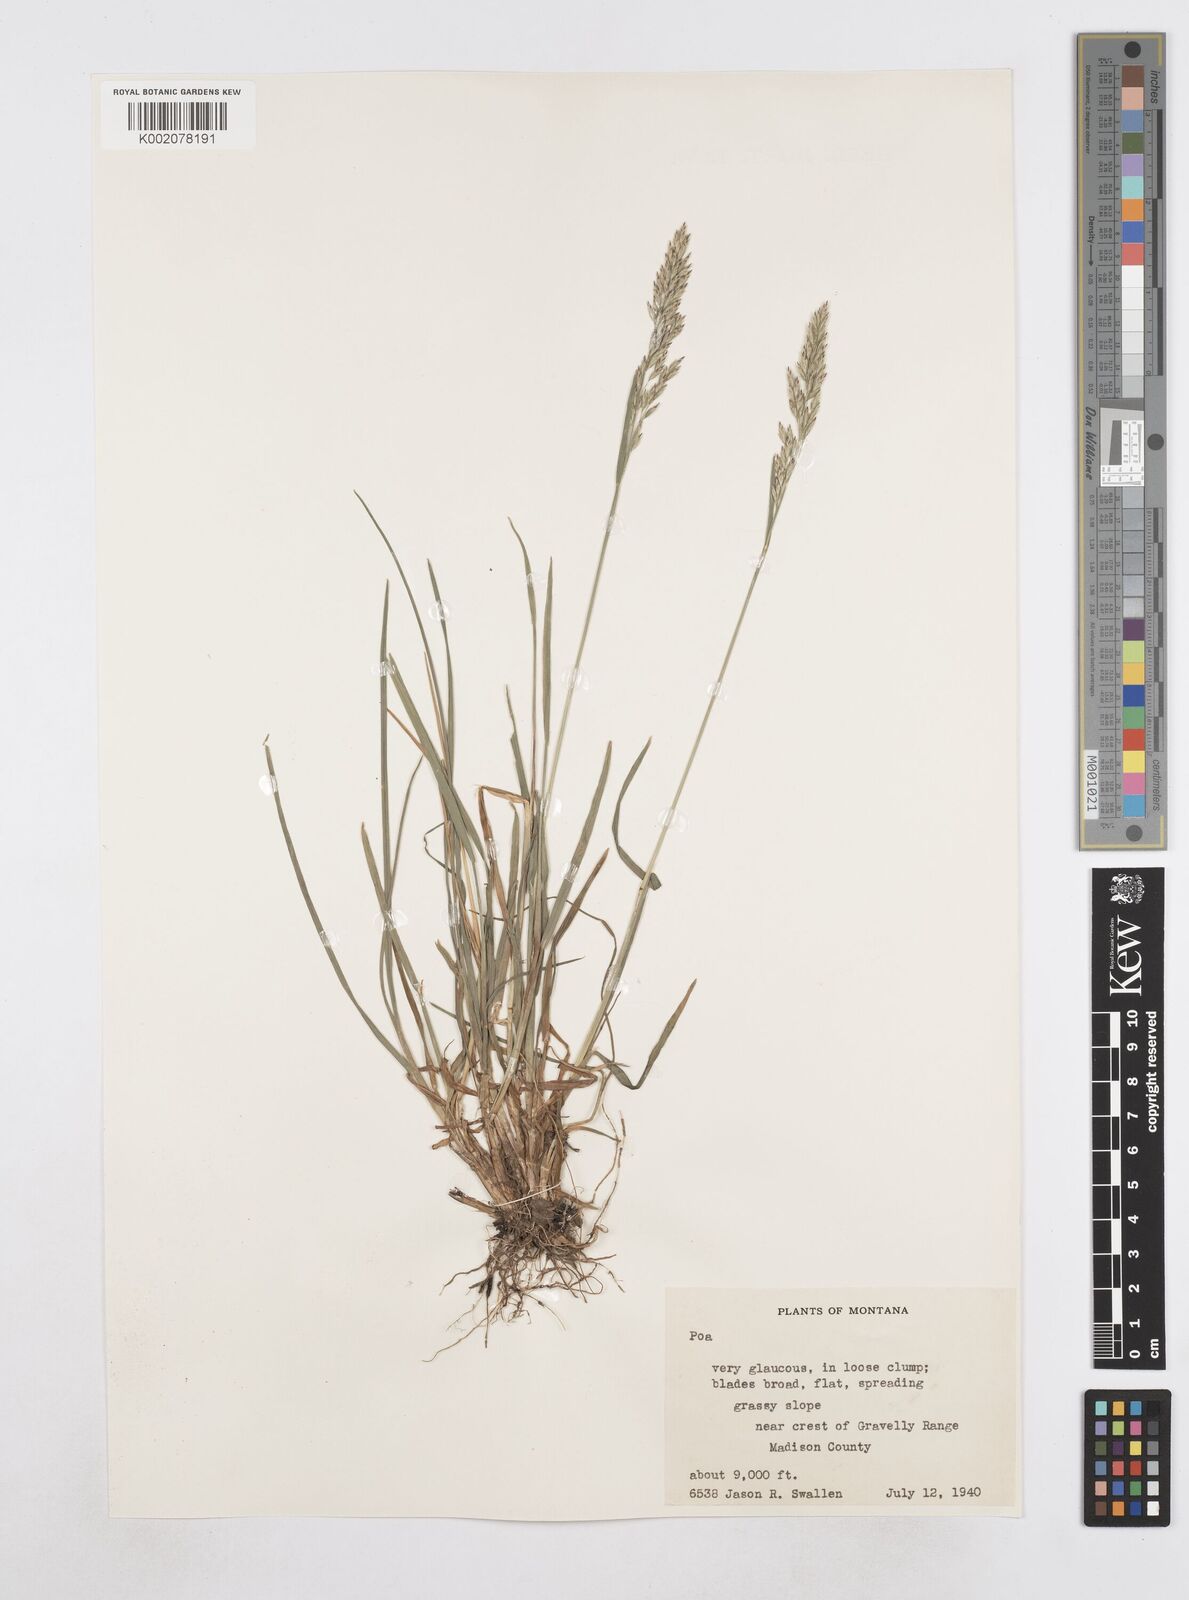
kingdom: Plantae
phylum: Tracheophyta
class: Liliopsida
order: Poales
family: Poaceae
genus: Poa
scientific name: Poa bactriana
